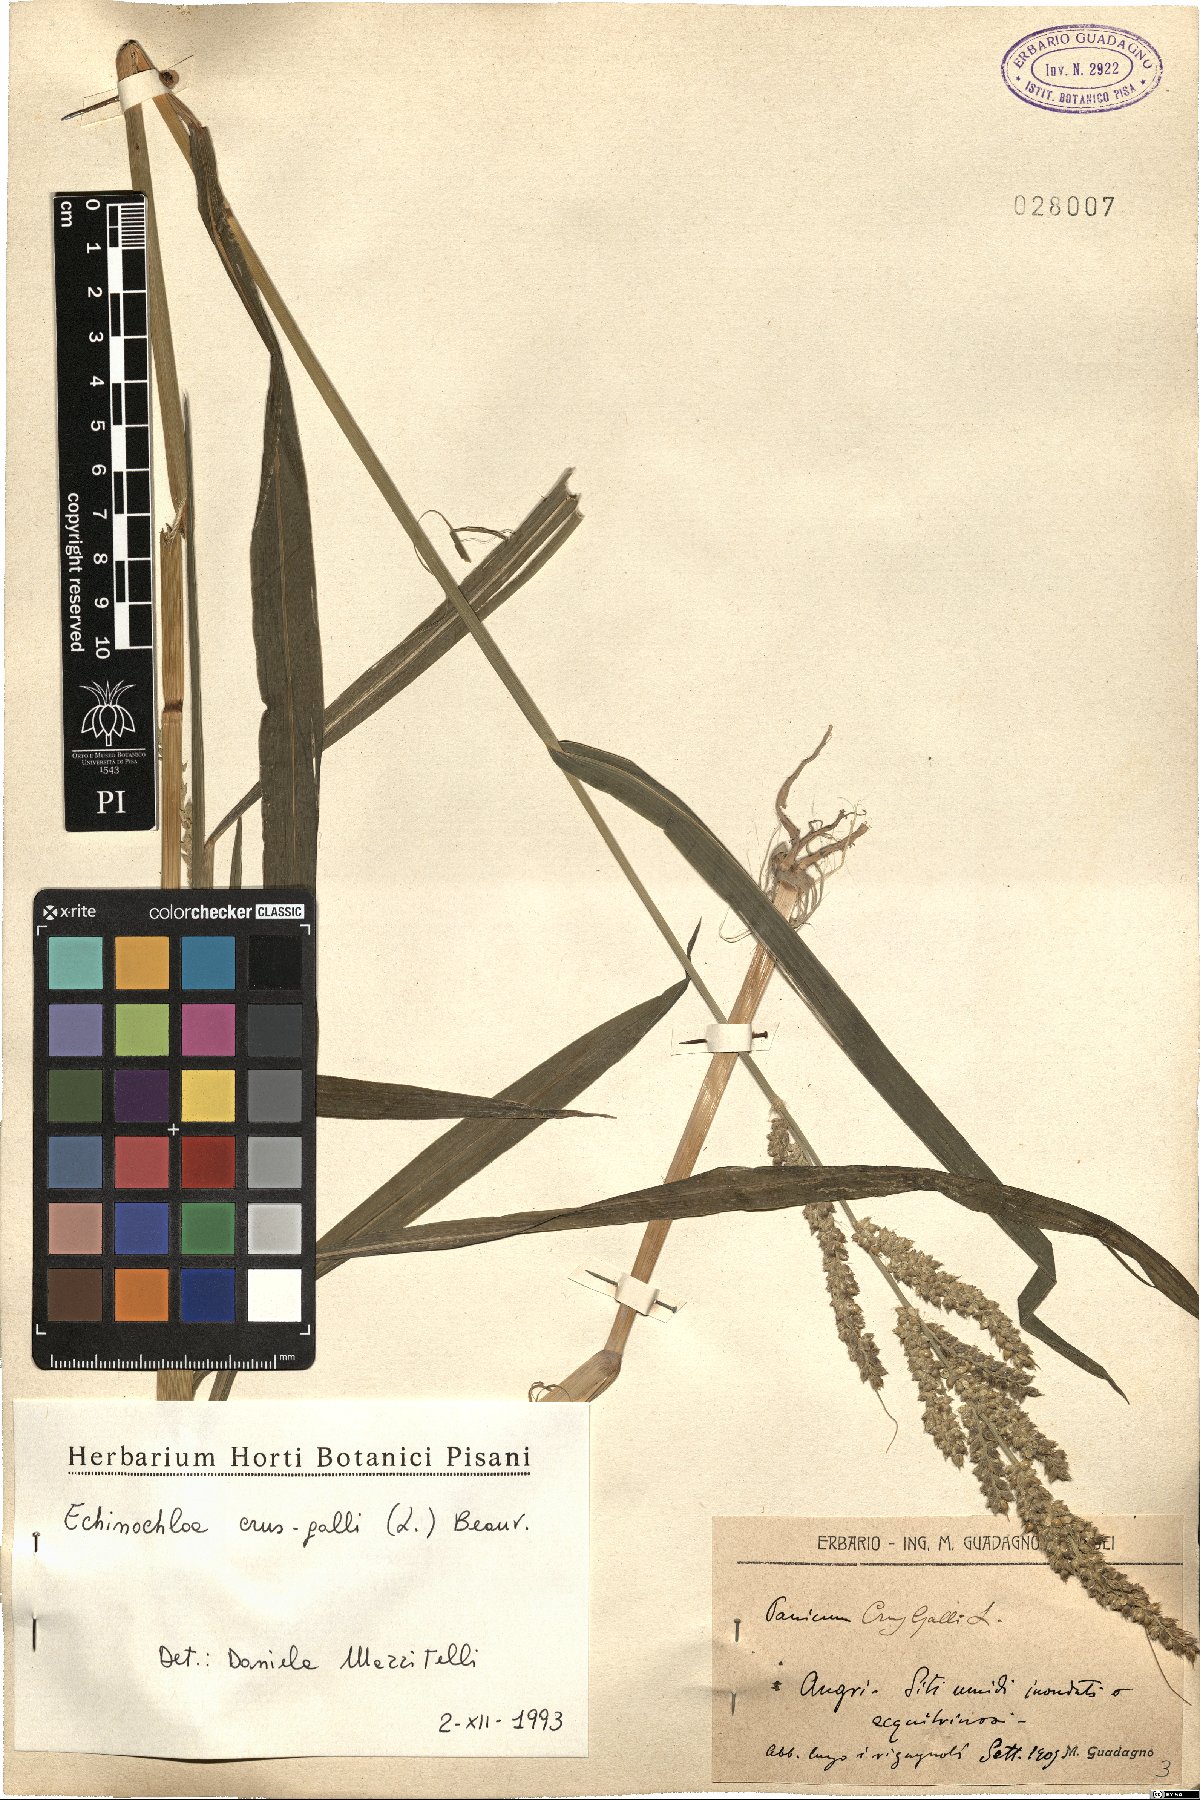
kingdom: Plantae
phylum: Tracheophyta
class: Liliopsida
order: Poales
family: Poaceae
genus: Echinochloa
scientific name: Echinochloa crus-galli
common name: Cockspur
